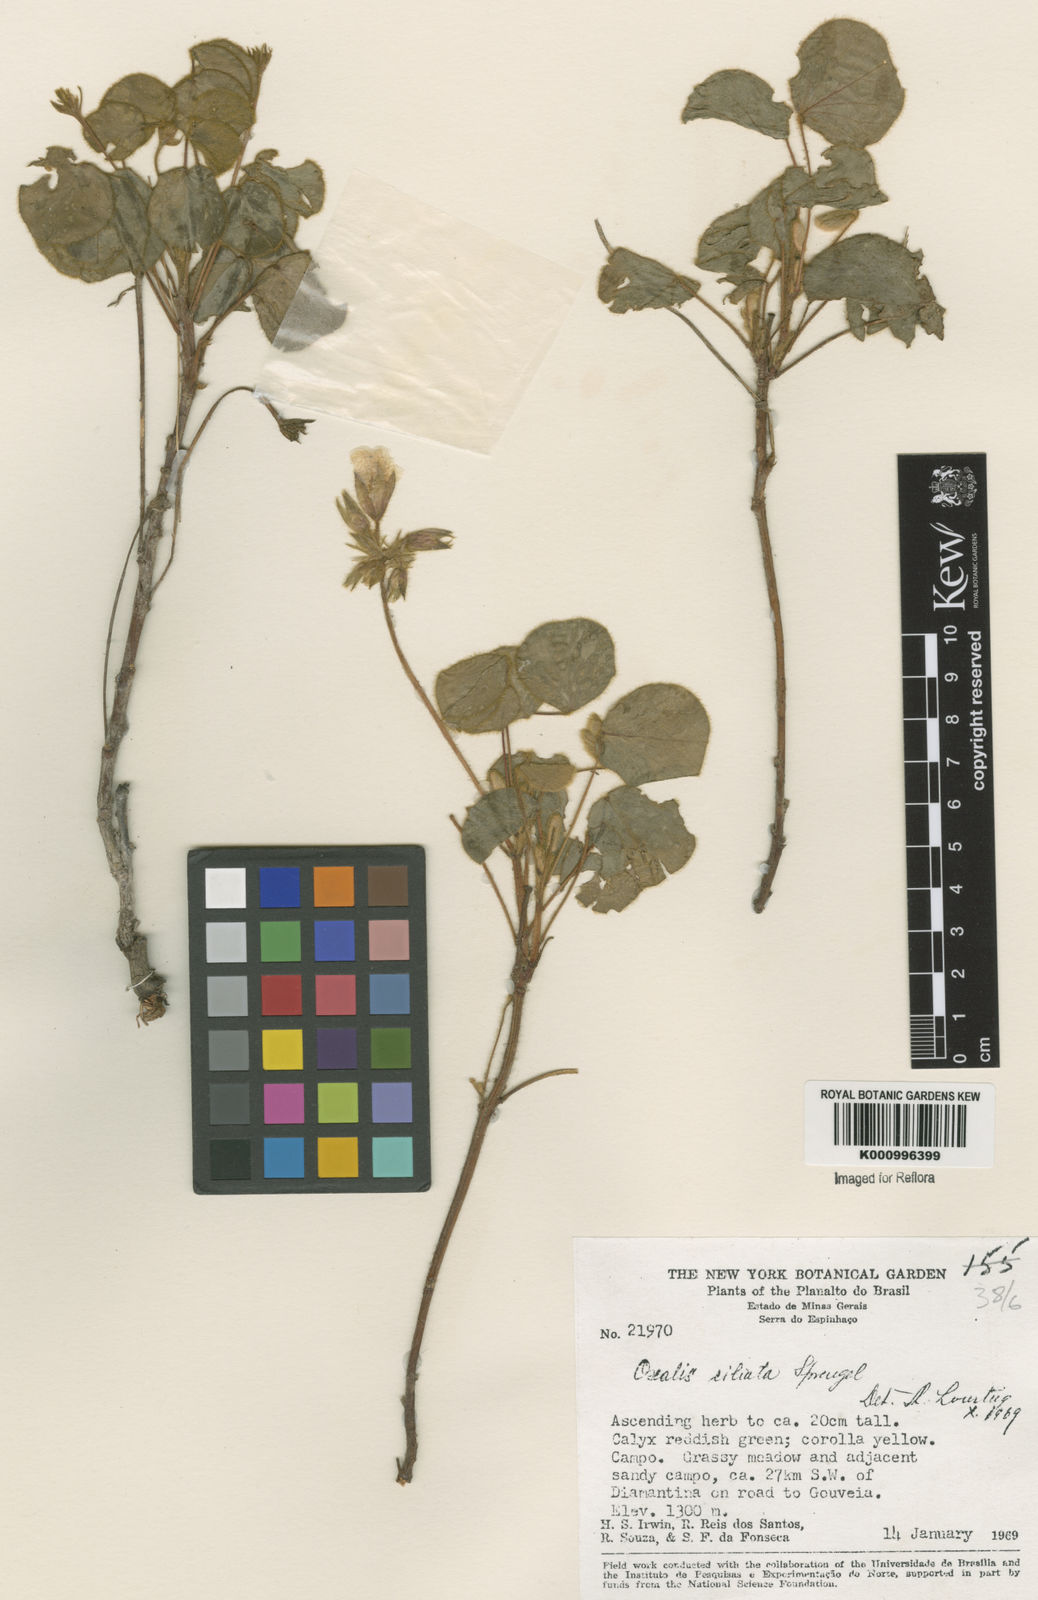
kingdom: Plantae
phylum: Tracheophyta
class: Magnoliopsida
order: Oxalidales
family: Oxalidaceae
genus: Oxalis
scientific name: Oxalis ciliata
